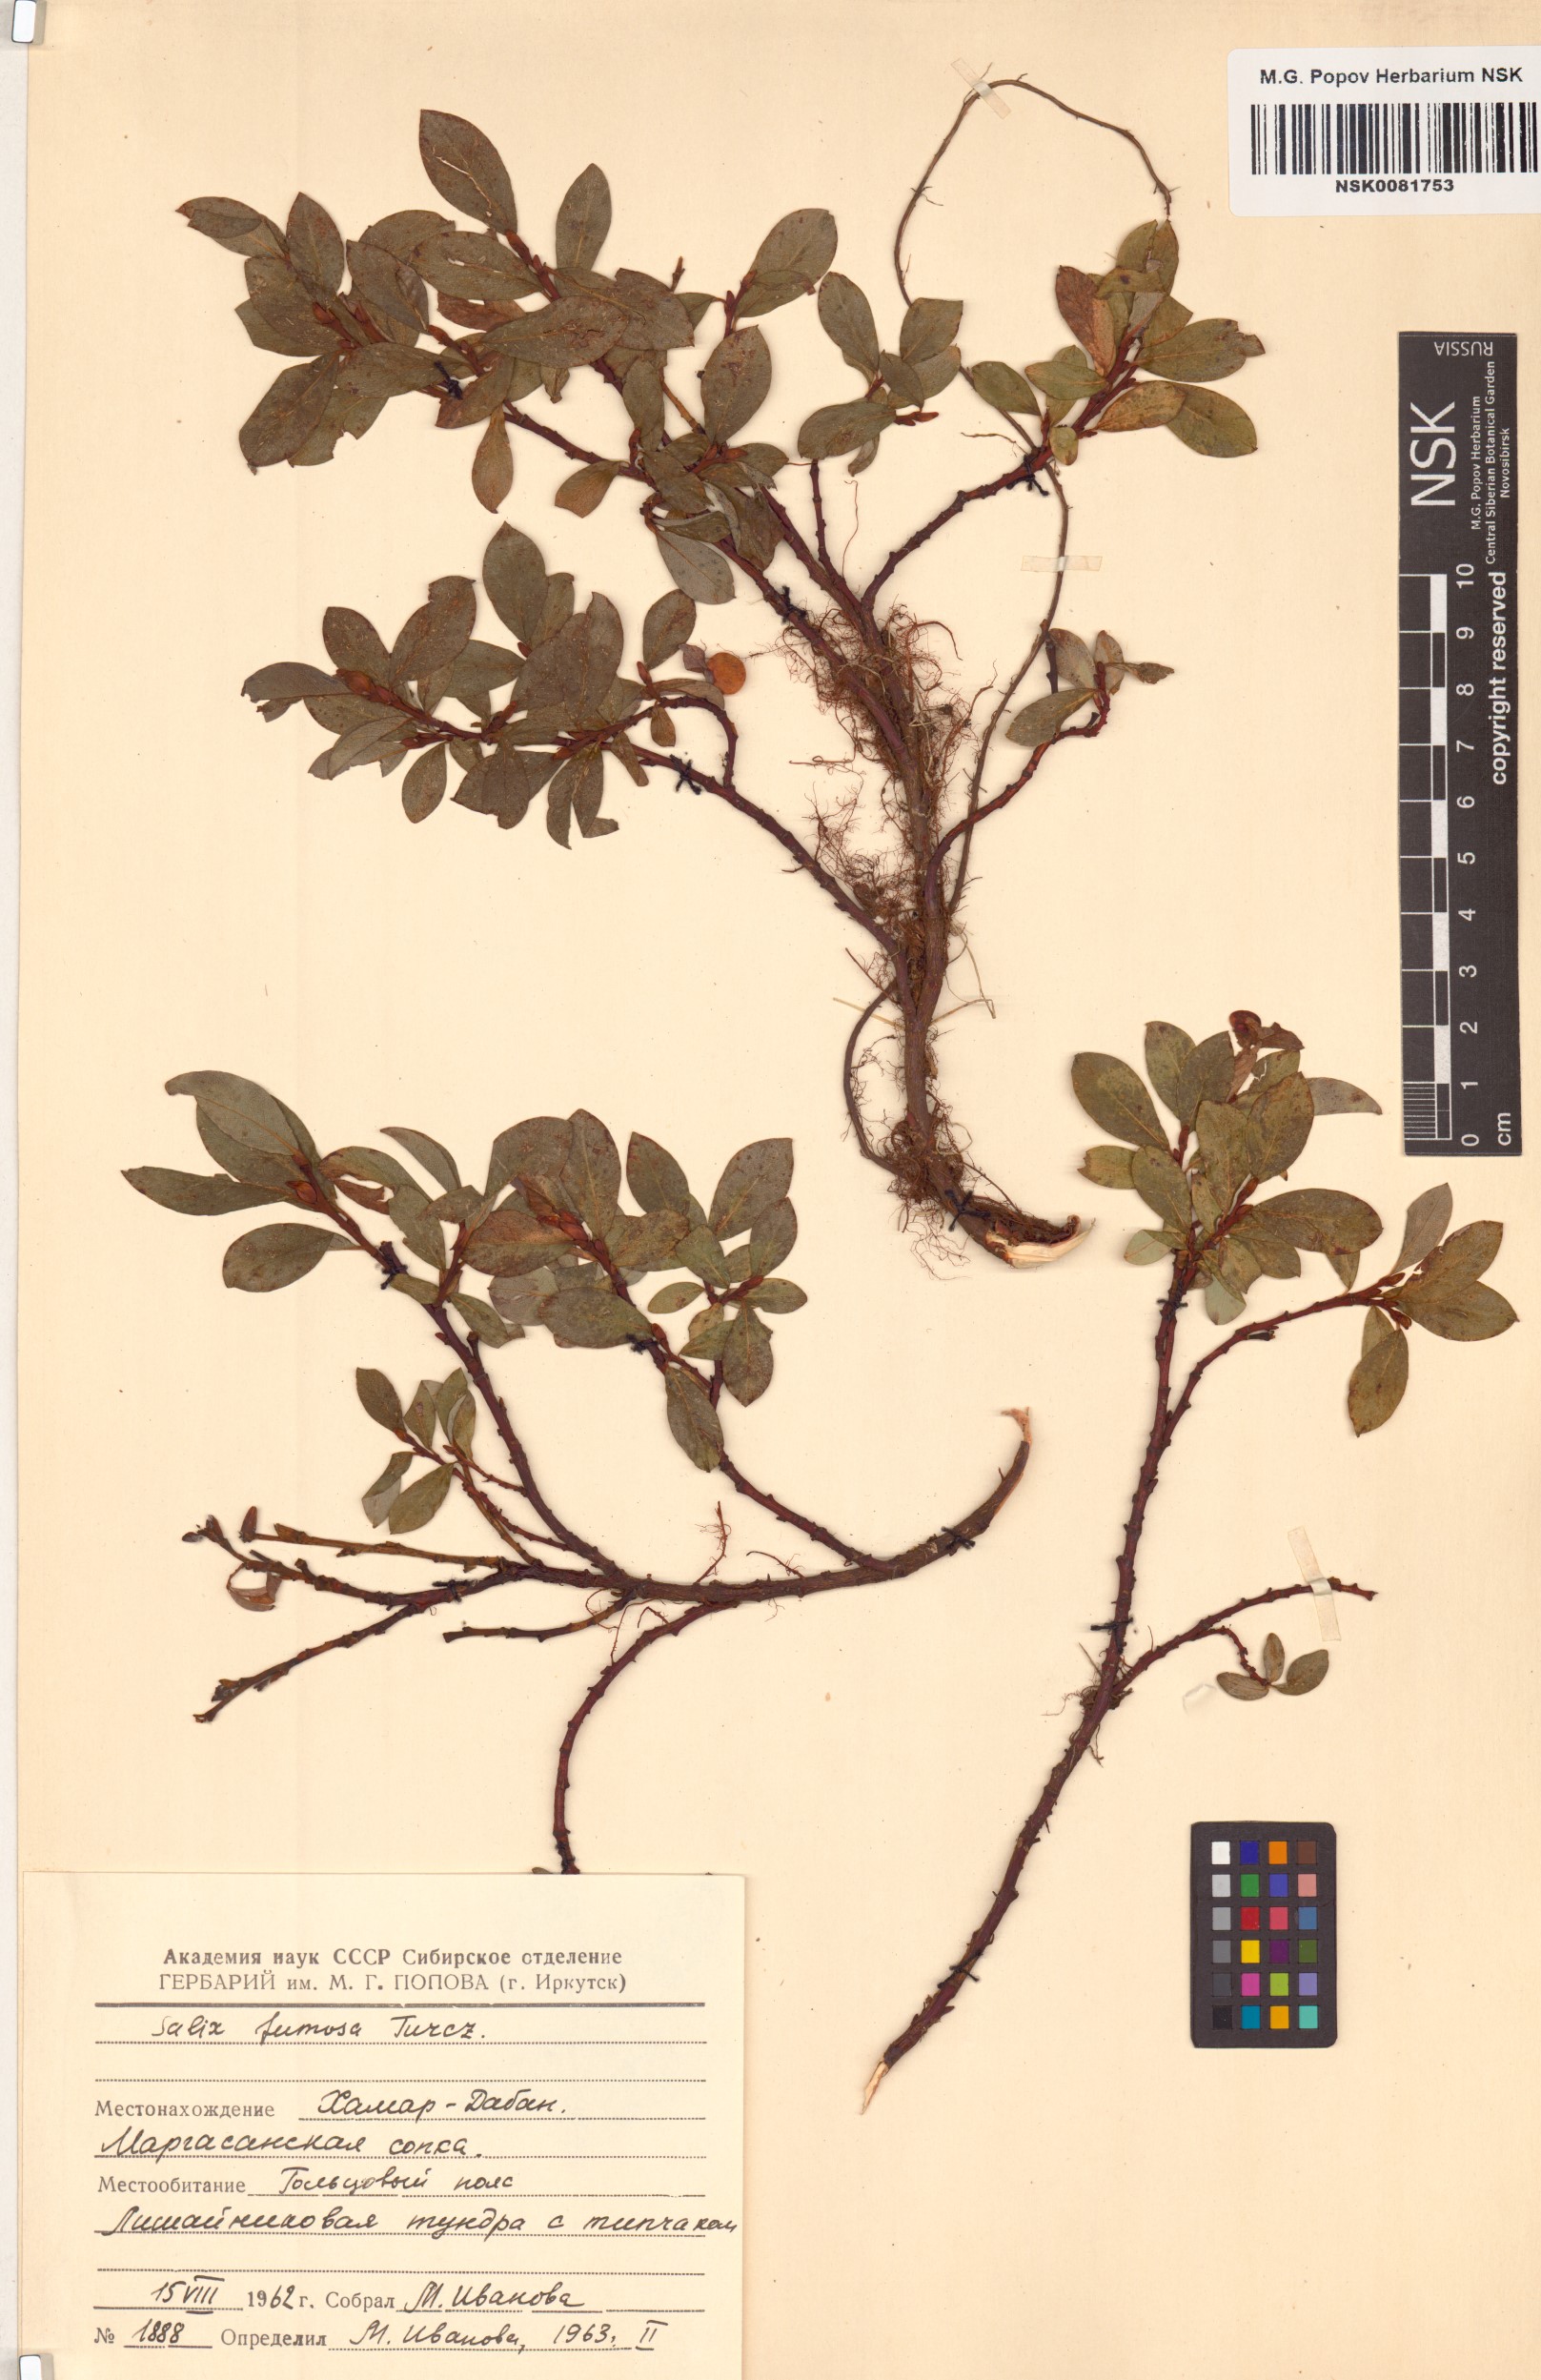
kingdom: Plantae
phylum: Tracheophyta
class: Magnoliopsida
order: Malpighiales
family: Salicaceae
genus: Salix
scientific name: Salix saxatilis
